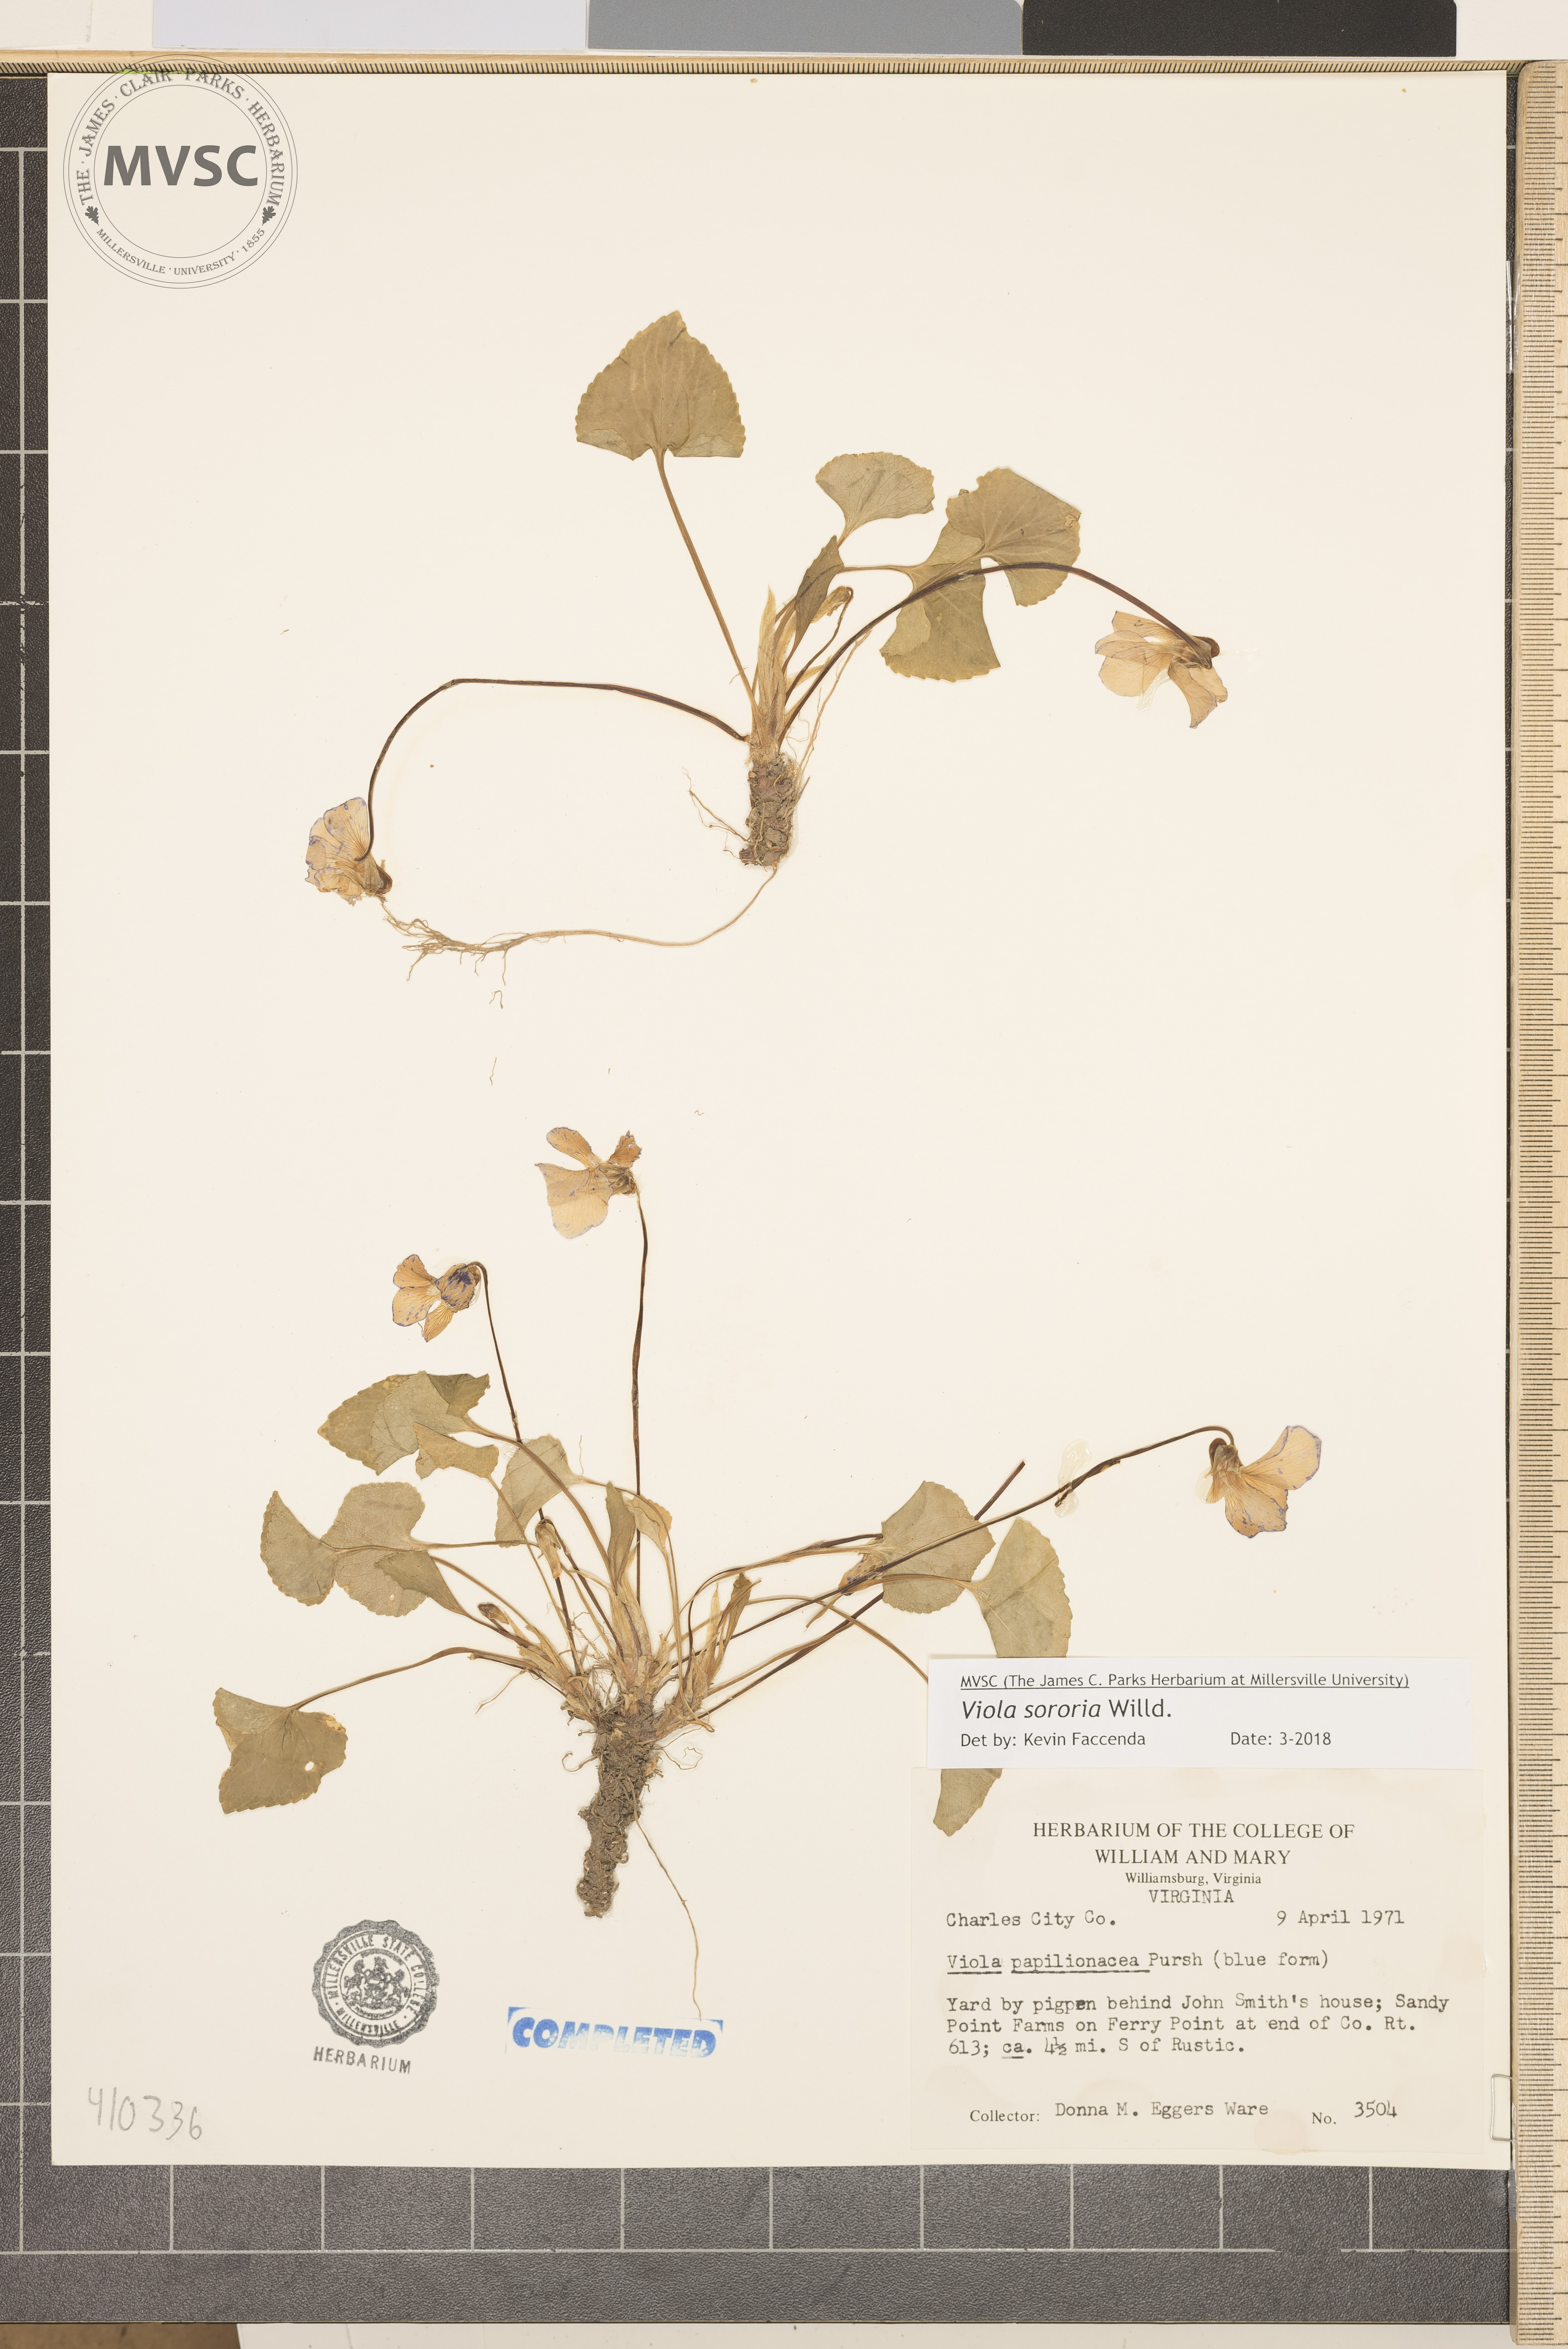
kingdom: Plantae
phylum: Tracheophyta
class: Magnoliopsida
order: Malpighiales
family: Violaceae
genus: Viola
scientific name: Viola sororia
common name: Dooryard violet
